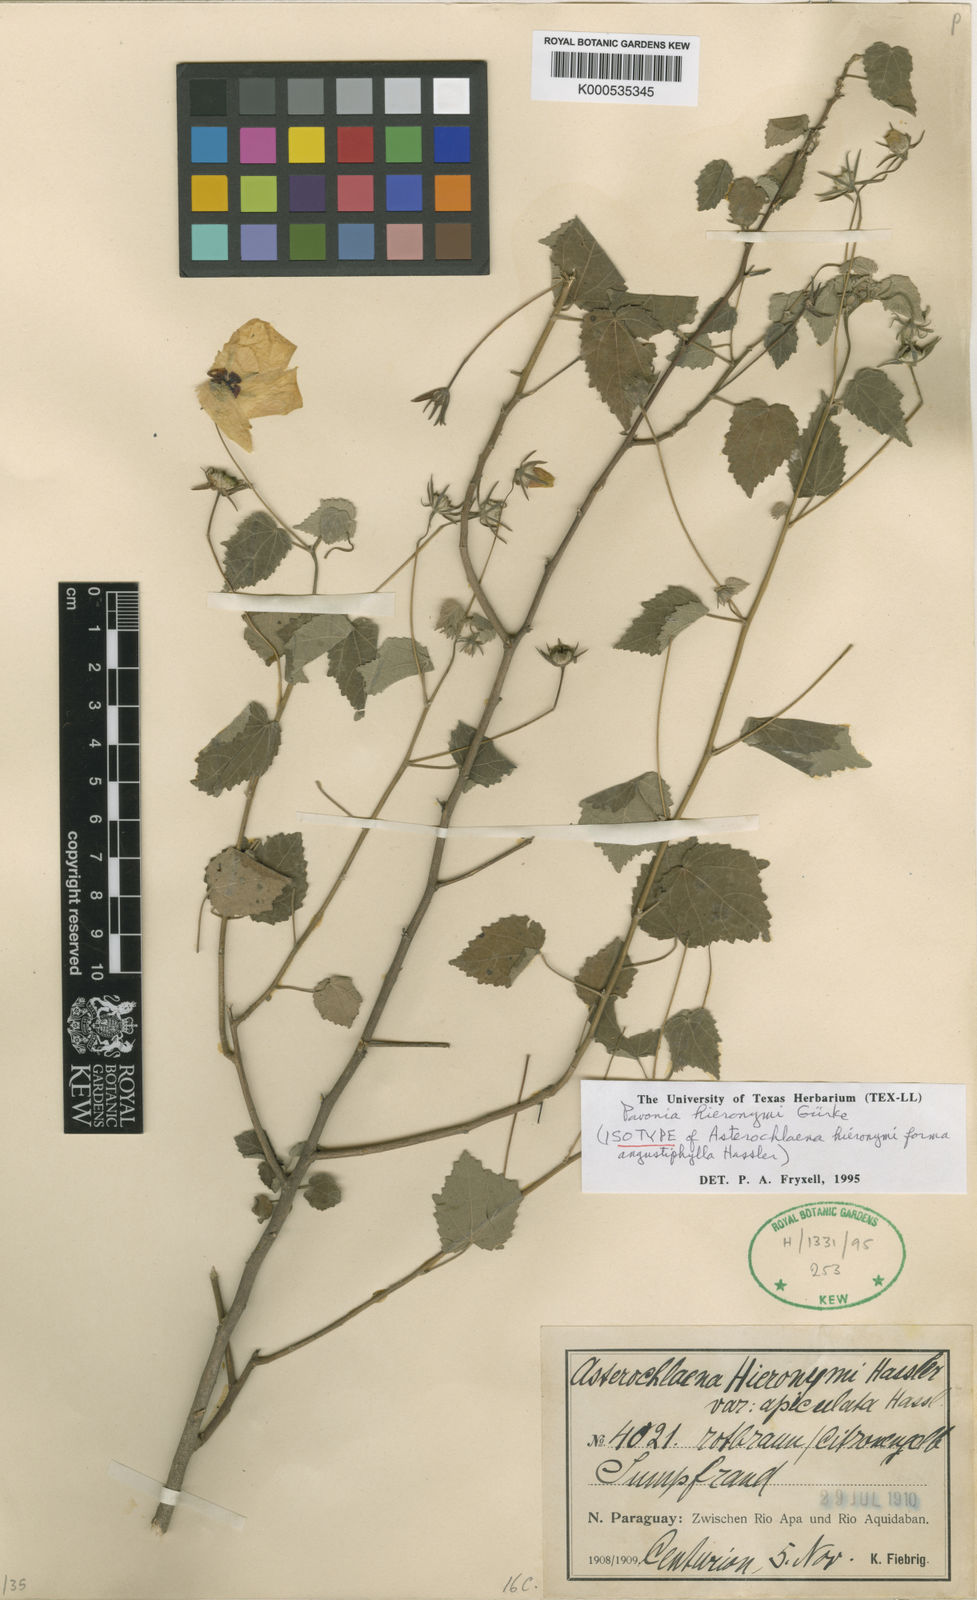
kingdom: Plantae
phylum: Tracheophyta
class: Magnoliopsida
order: Malvales
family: Malvaceae
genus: Pavonia
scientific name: Pavonia
